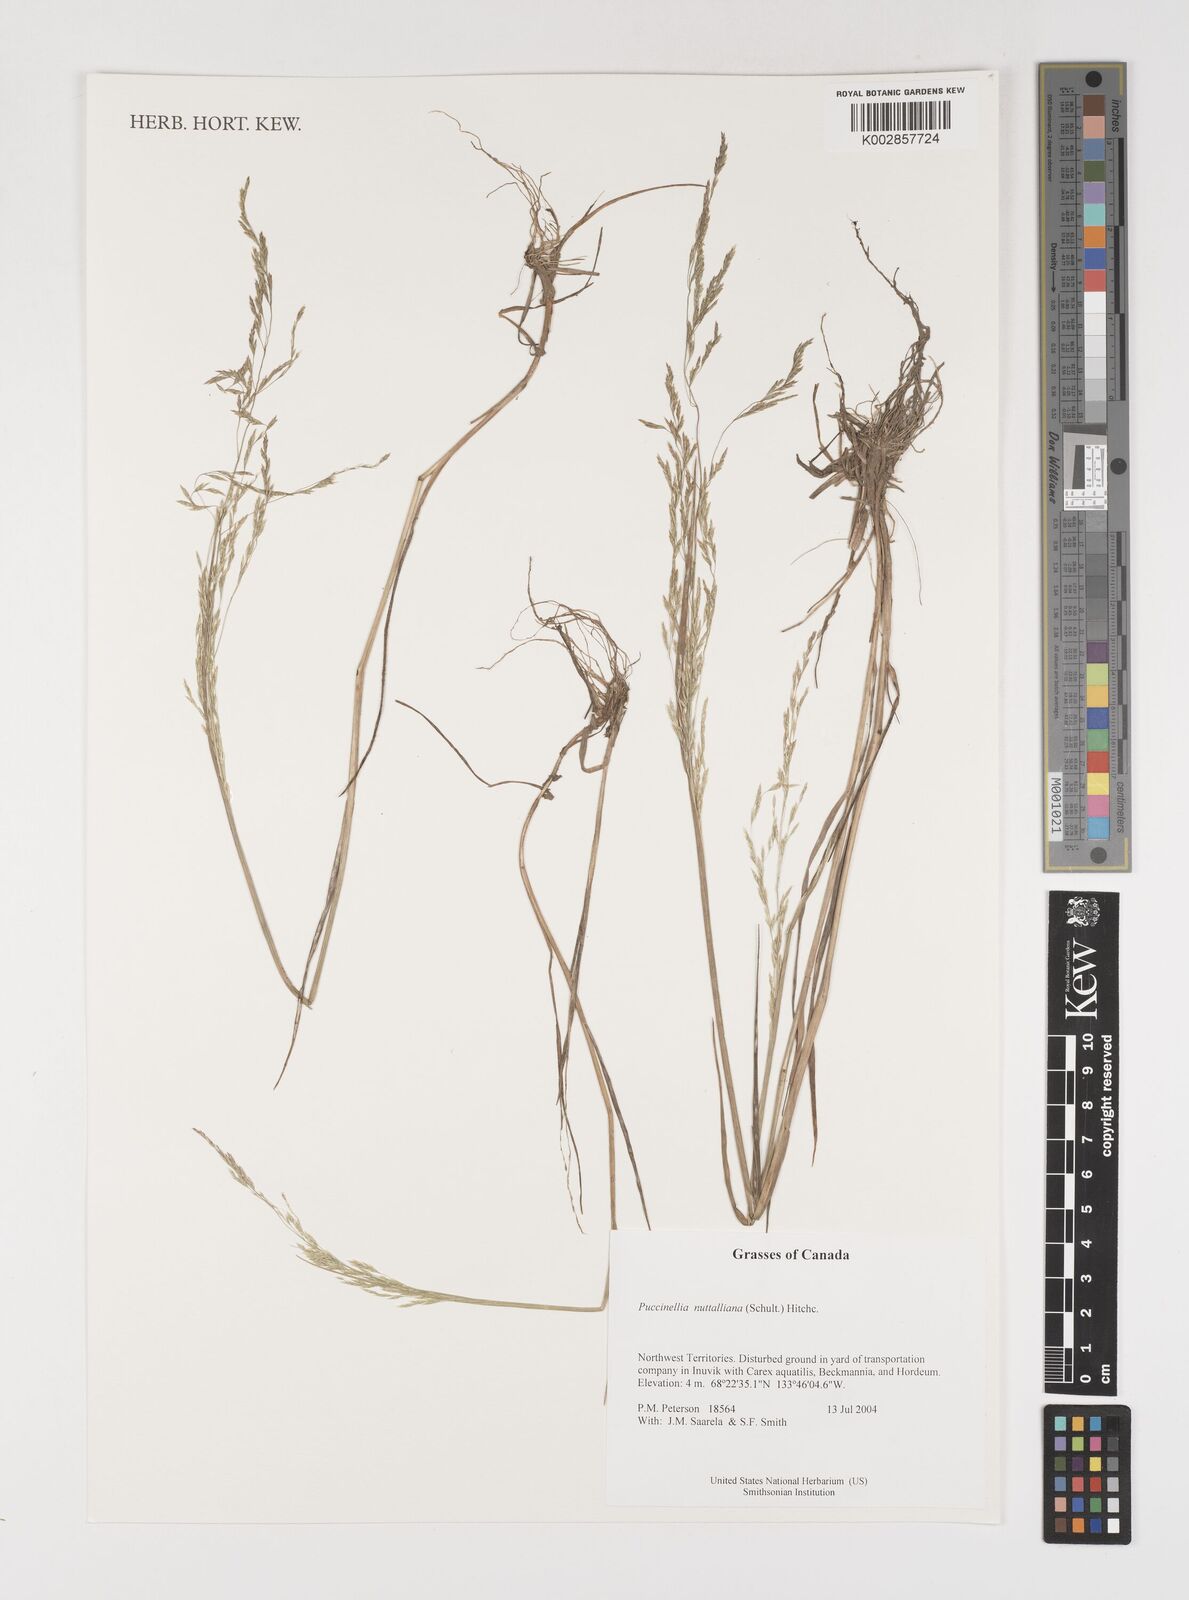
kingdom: Plantae
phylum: Tracheophyta
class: Liliopsida
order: Poales
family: Poaceae
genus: Puccinellia
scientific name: Puccinellia nuttalliana
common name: Nuttall's alkali grass
